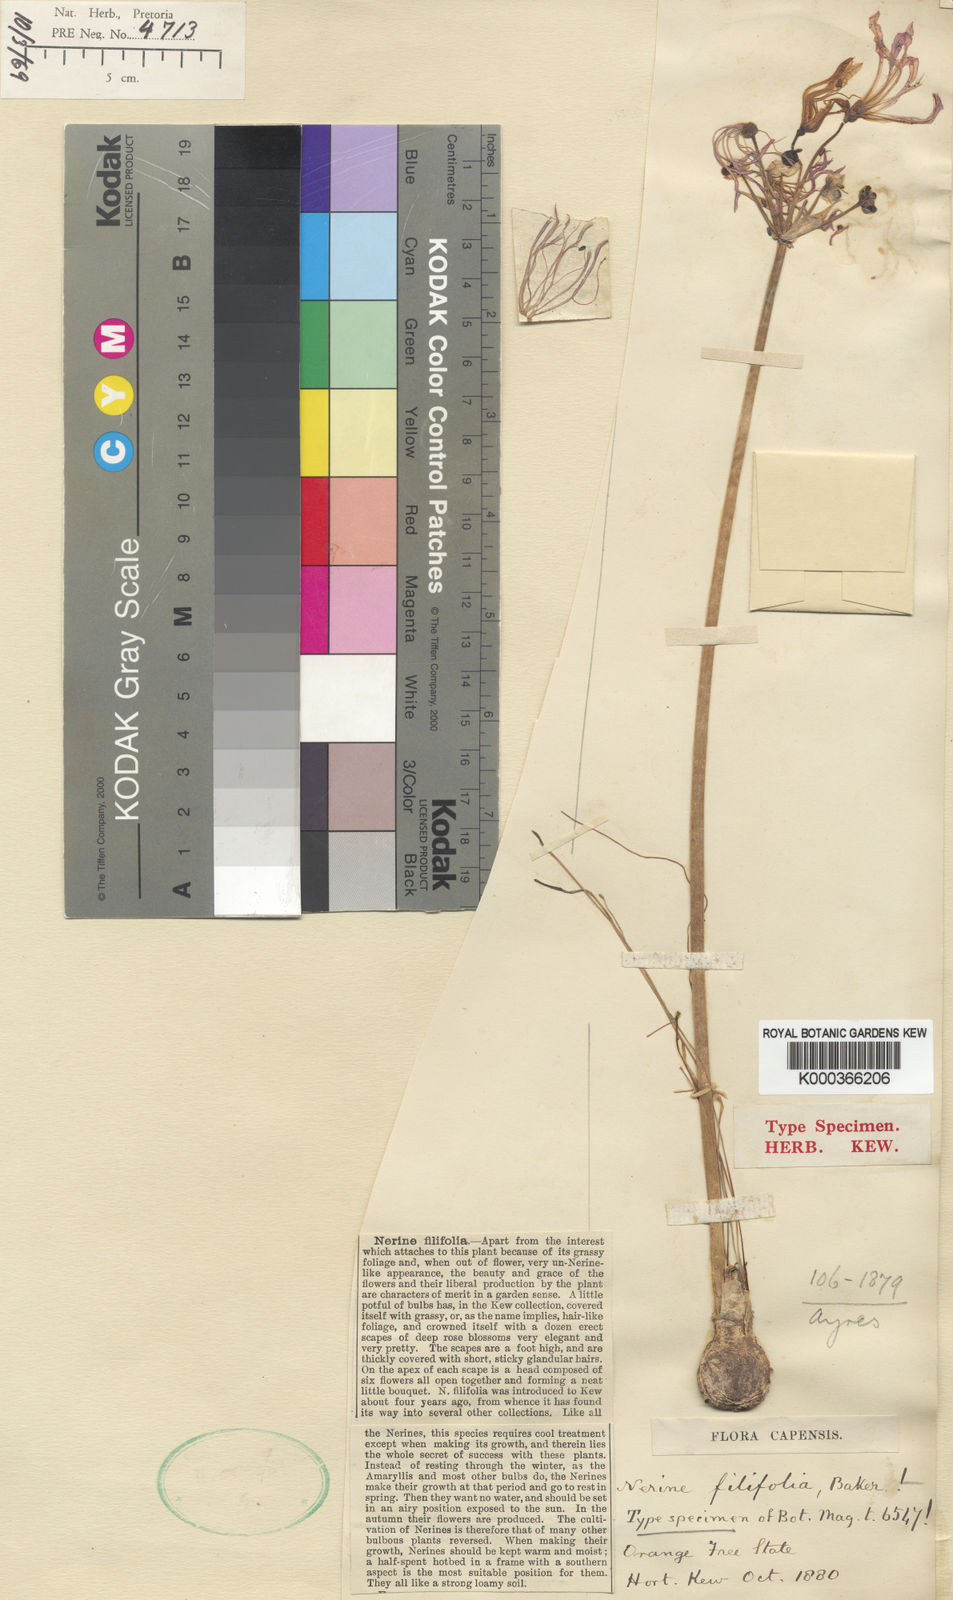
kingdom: Plantae
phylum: Tracheophyta
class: Liliopsida
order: Asparagales
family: Amaryllidaceae
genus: Nerine
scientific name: Nerine filifolia
